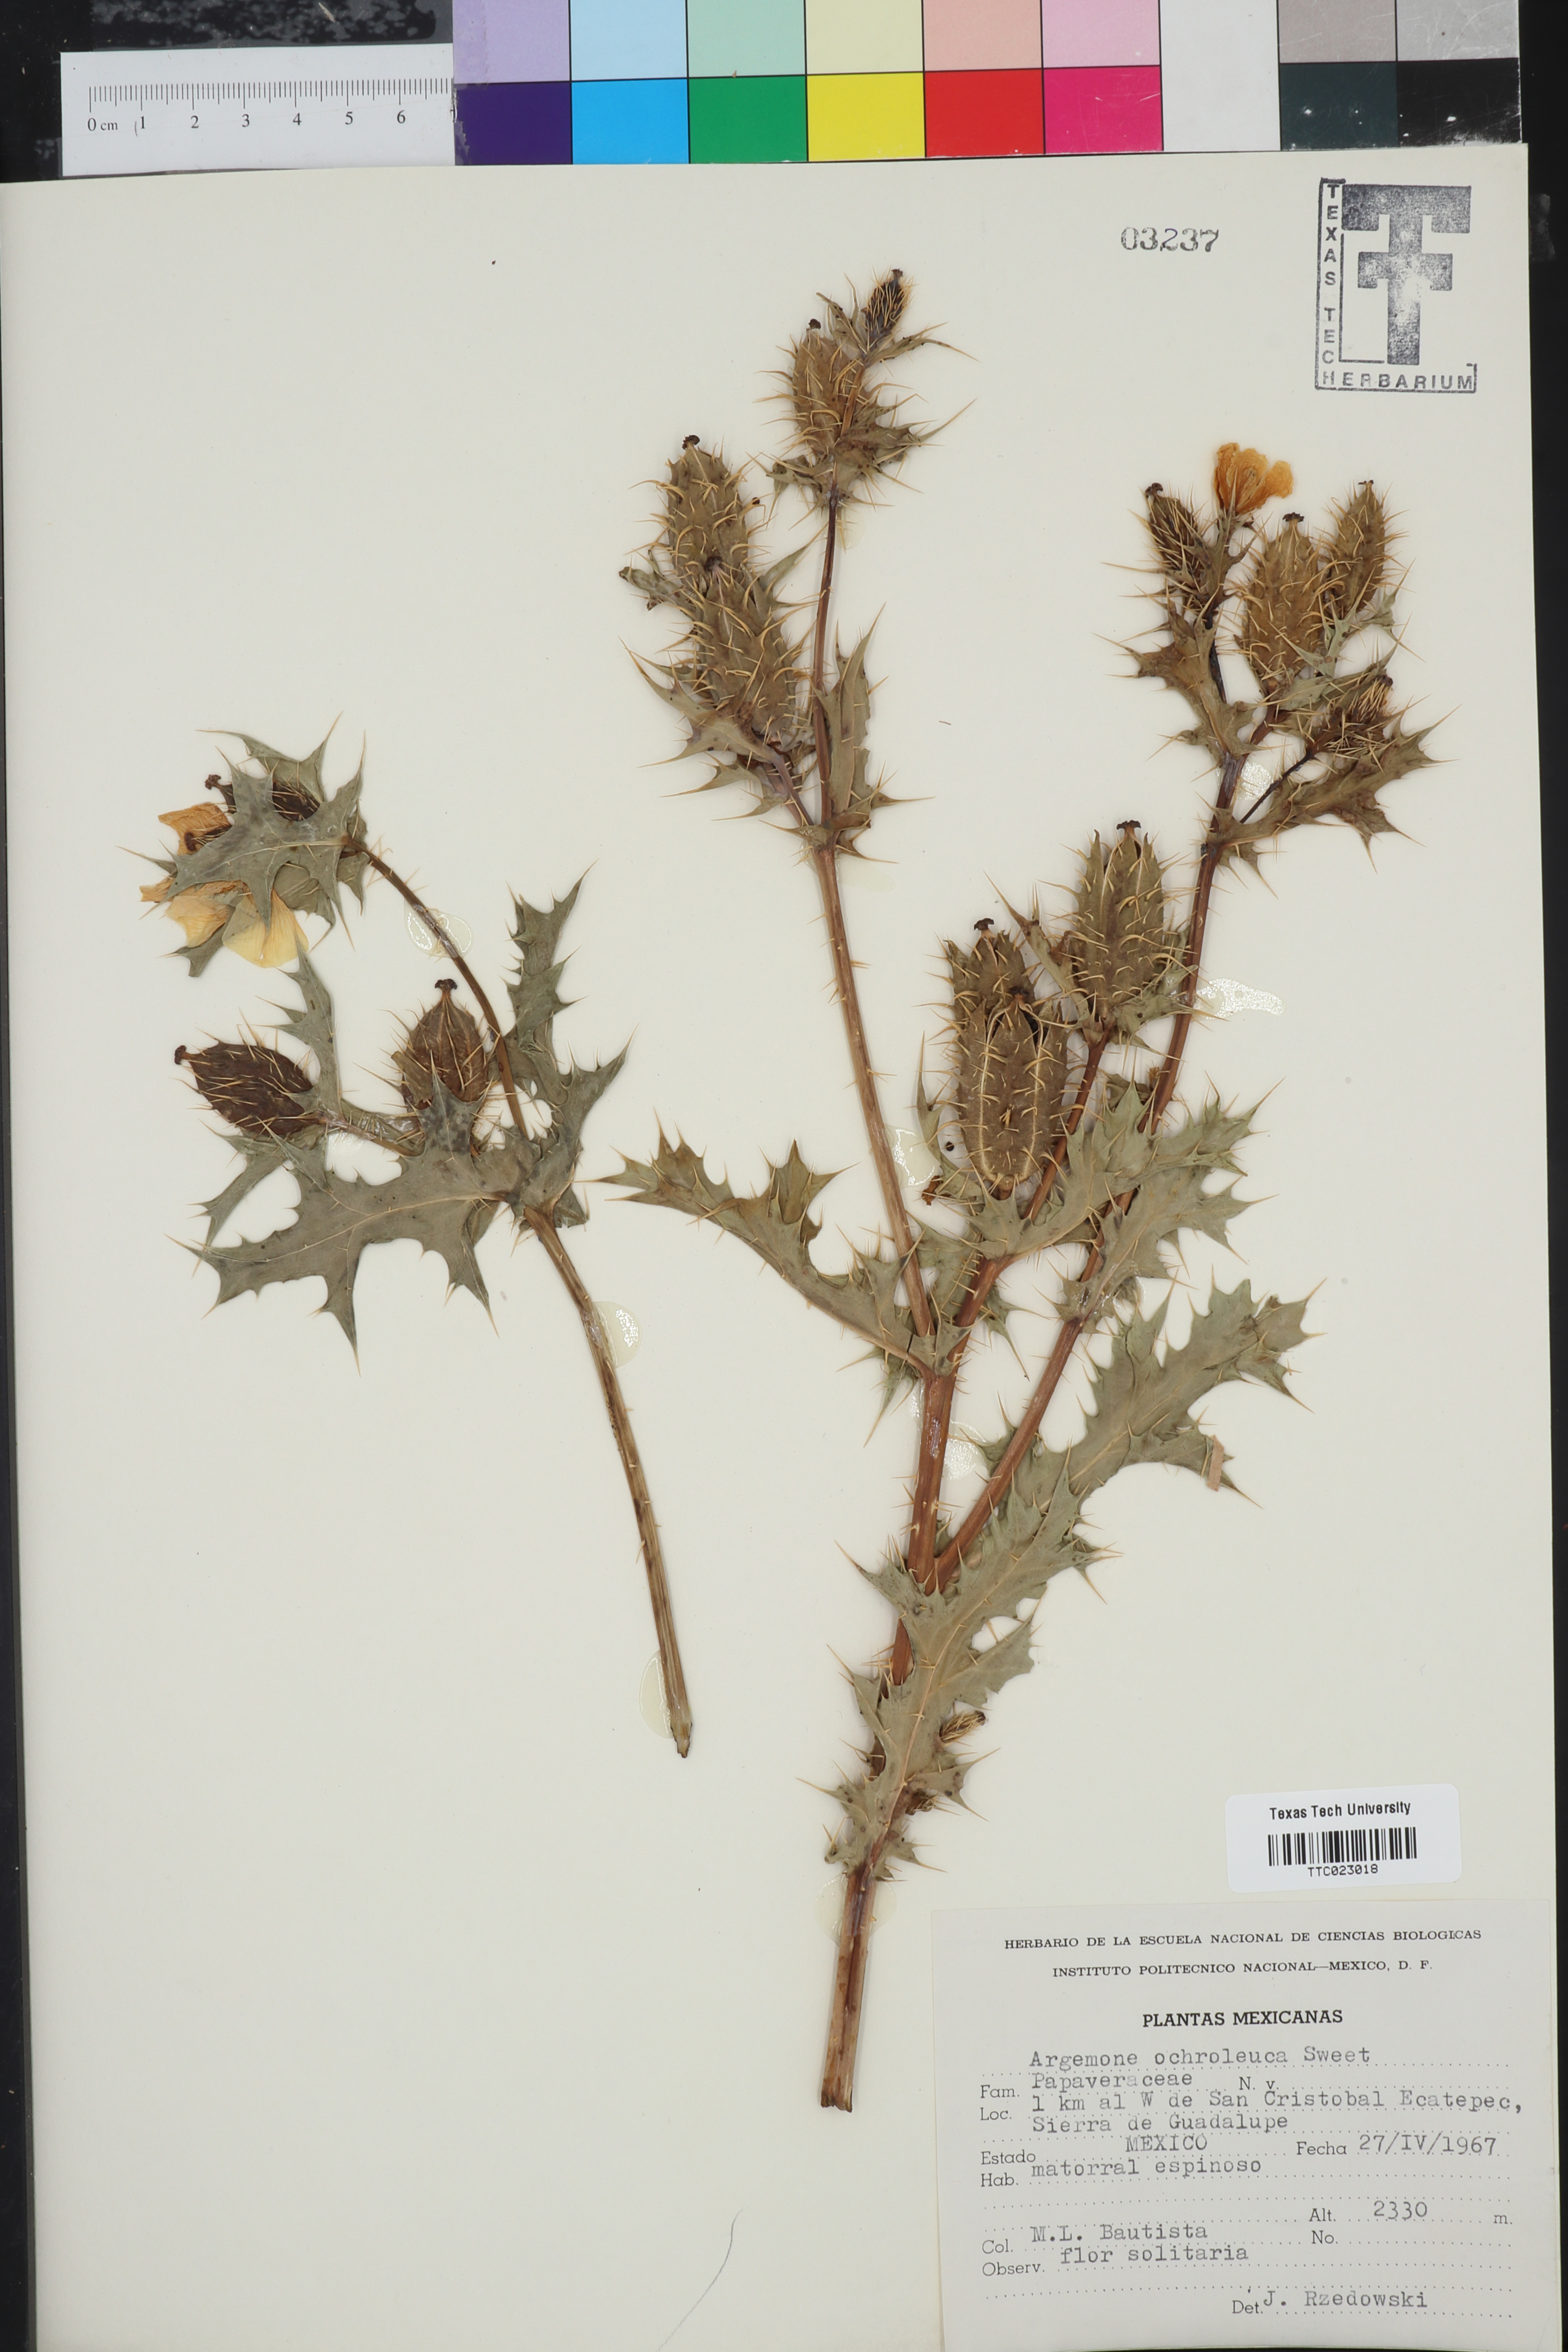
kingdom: Plantae
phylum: Tracheophyta
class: Magnoliopsida
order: Ranunculales
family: Papaveraceae
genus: Argemone
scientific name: Argemone ochroleuca
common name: White-flower mexican-poppy
